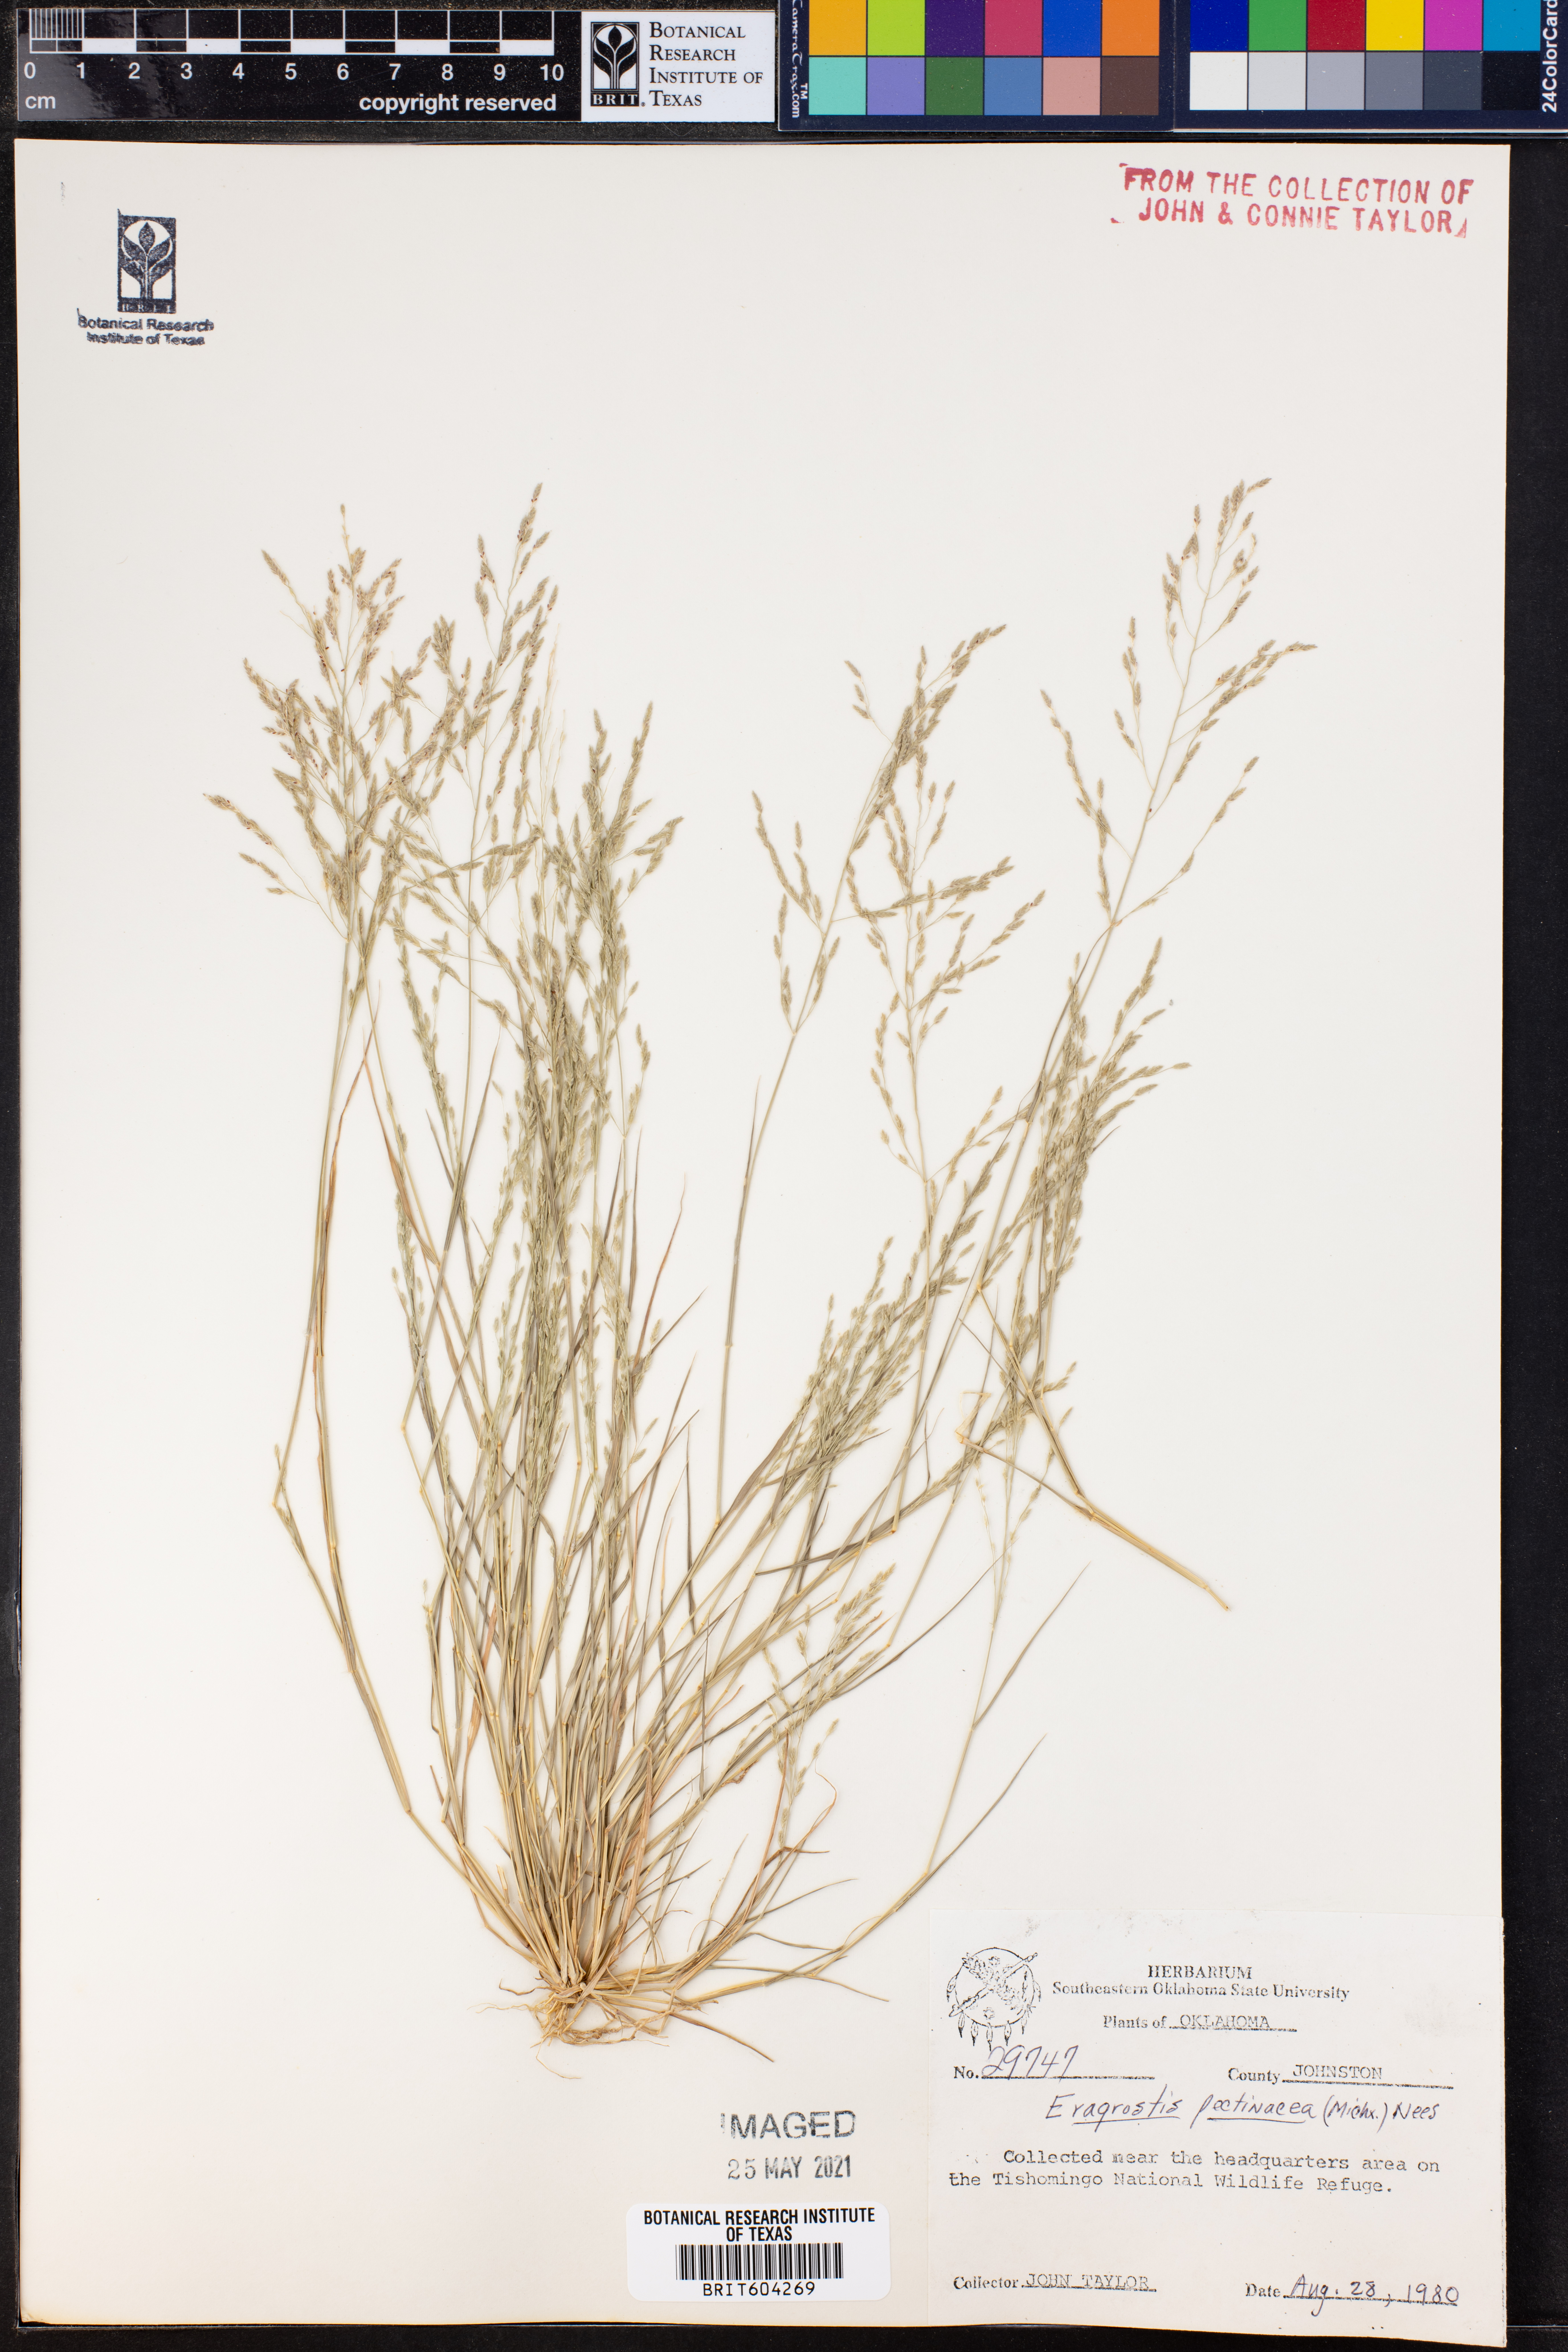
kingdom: Plantae
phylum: Tracheophyta
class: Liliopsida
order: Poales
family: Poaceae
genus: Eragrostis
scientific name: Eragrostis pectinacea
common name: Tufted lovegrass
